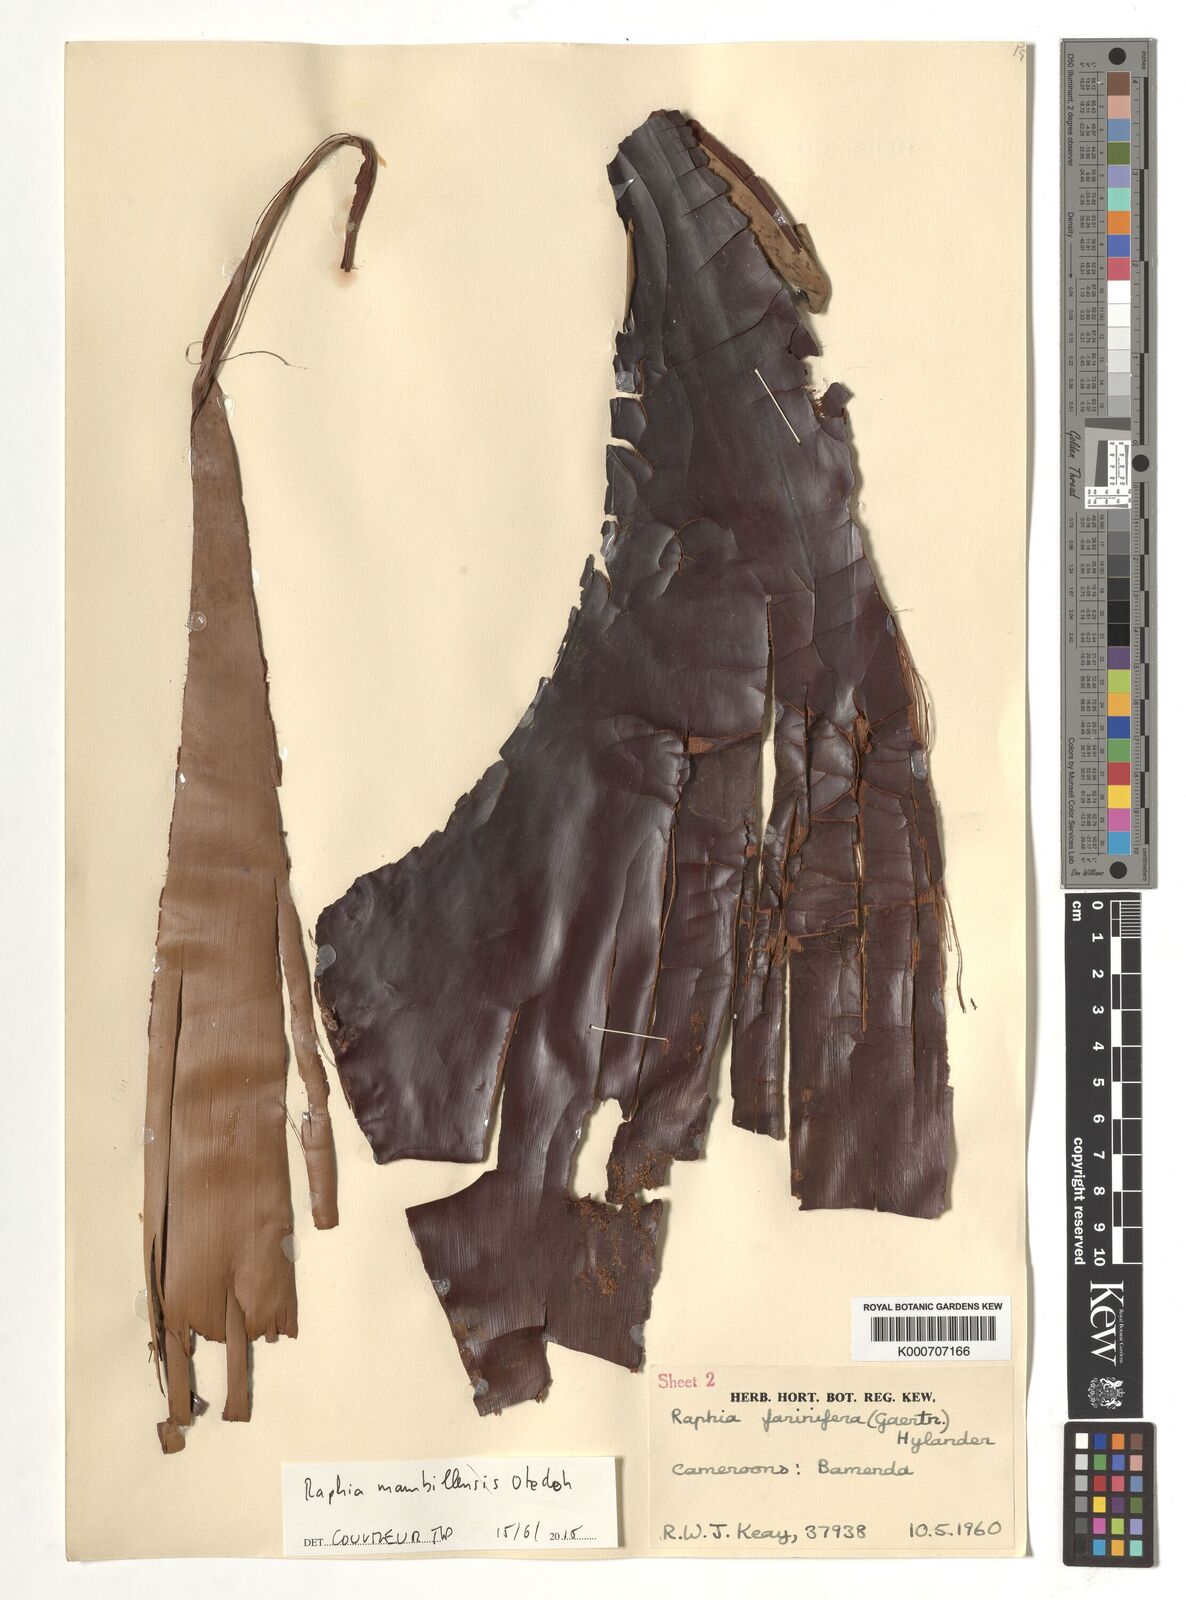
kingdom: Plantae
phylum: Tracheophyta
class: Liliopsida
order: Arecales
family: Arecaceae
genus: Raphia
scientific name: Raphia farinifera
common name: Raphia palm
